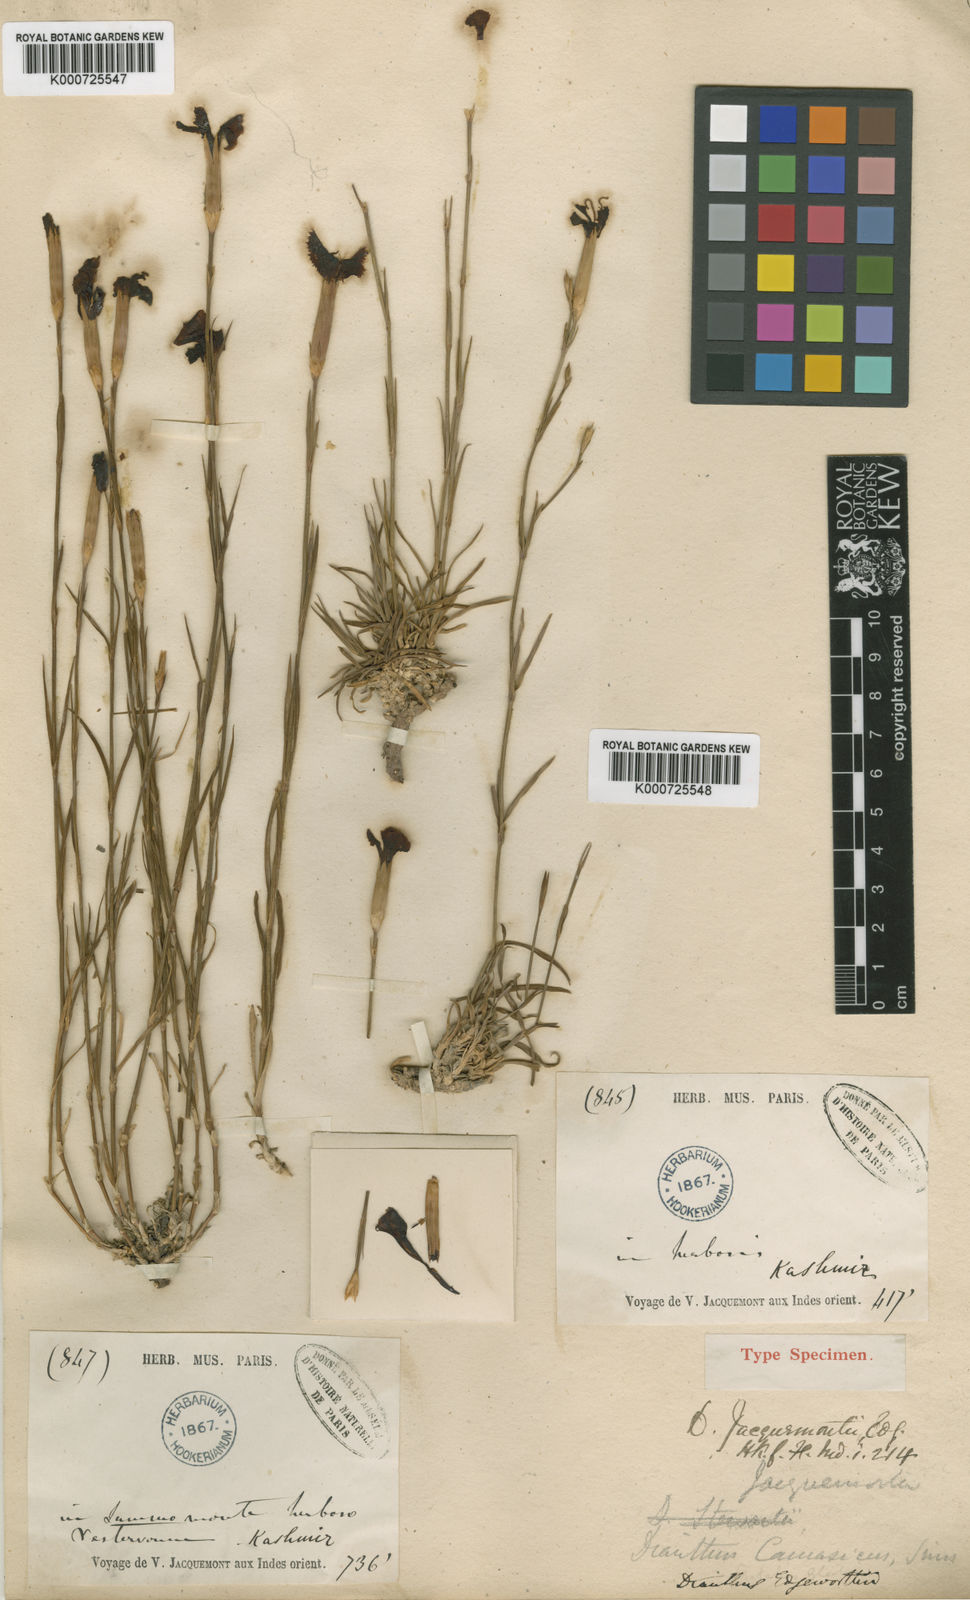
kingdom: Plantae
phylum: Tracheophyta
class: Magnoliopsida
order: Caryophyllales
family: Caryophyllaceae
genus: Dianthus
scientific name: Dianthus jacquemontii
